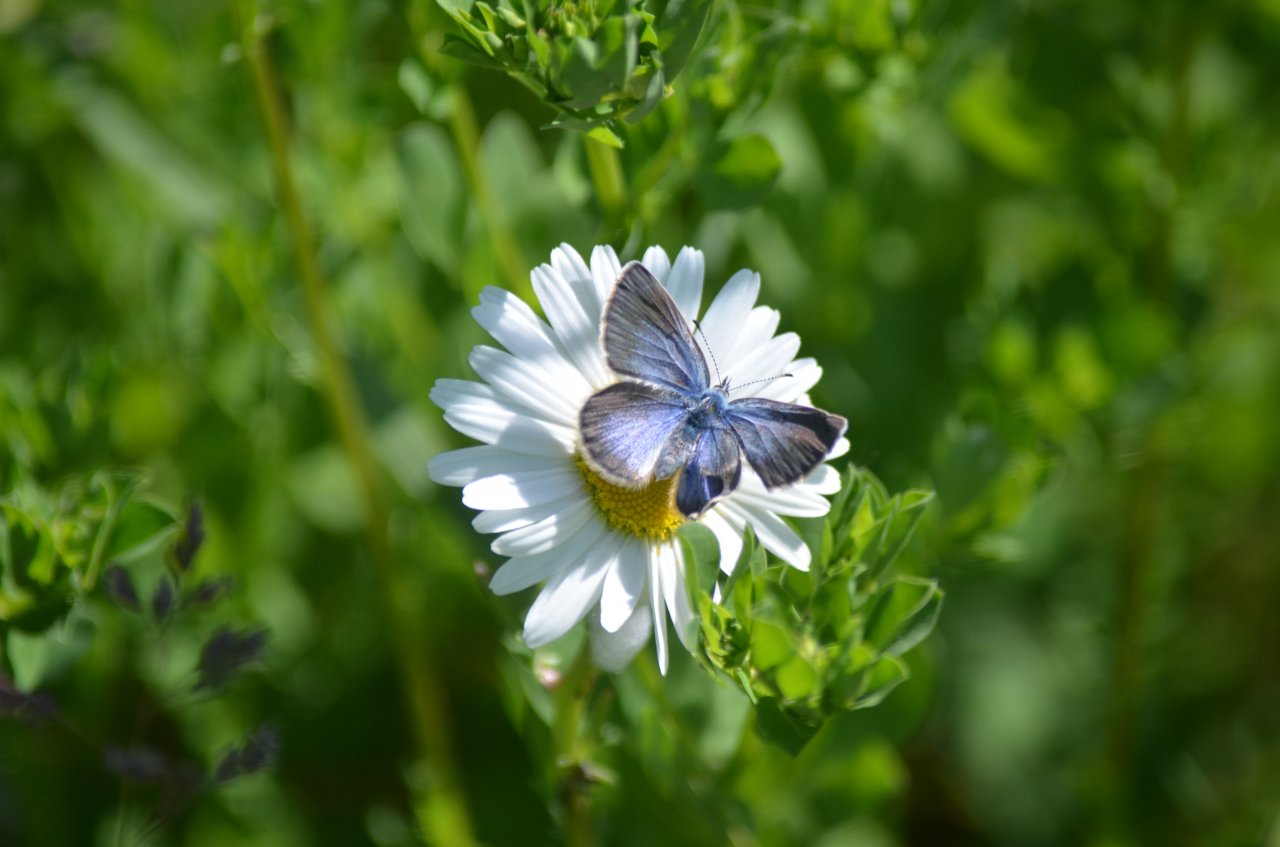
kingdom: Animalia
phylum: Arthropoda
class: Insecta
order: Lepidoptera
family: Lycaenidae
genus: Glaucopsyche
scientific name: Glaucopsyche lygdamus
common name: Silvery Blue
